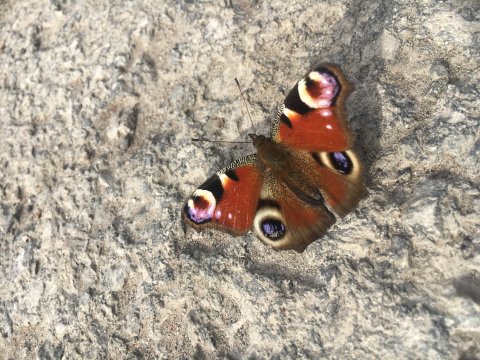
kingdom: Animalia
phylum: Arthropoda
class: Insecta
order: Lepidoptera
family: Nymphalidae
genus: Aglais
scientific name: Aglais io
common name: European Peacock
